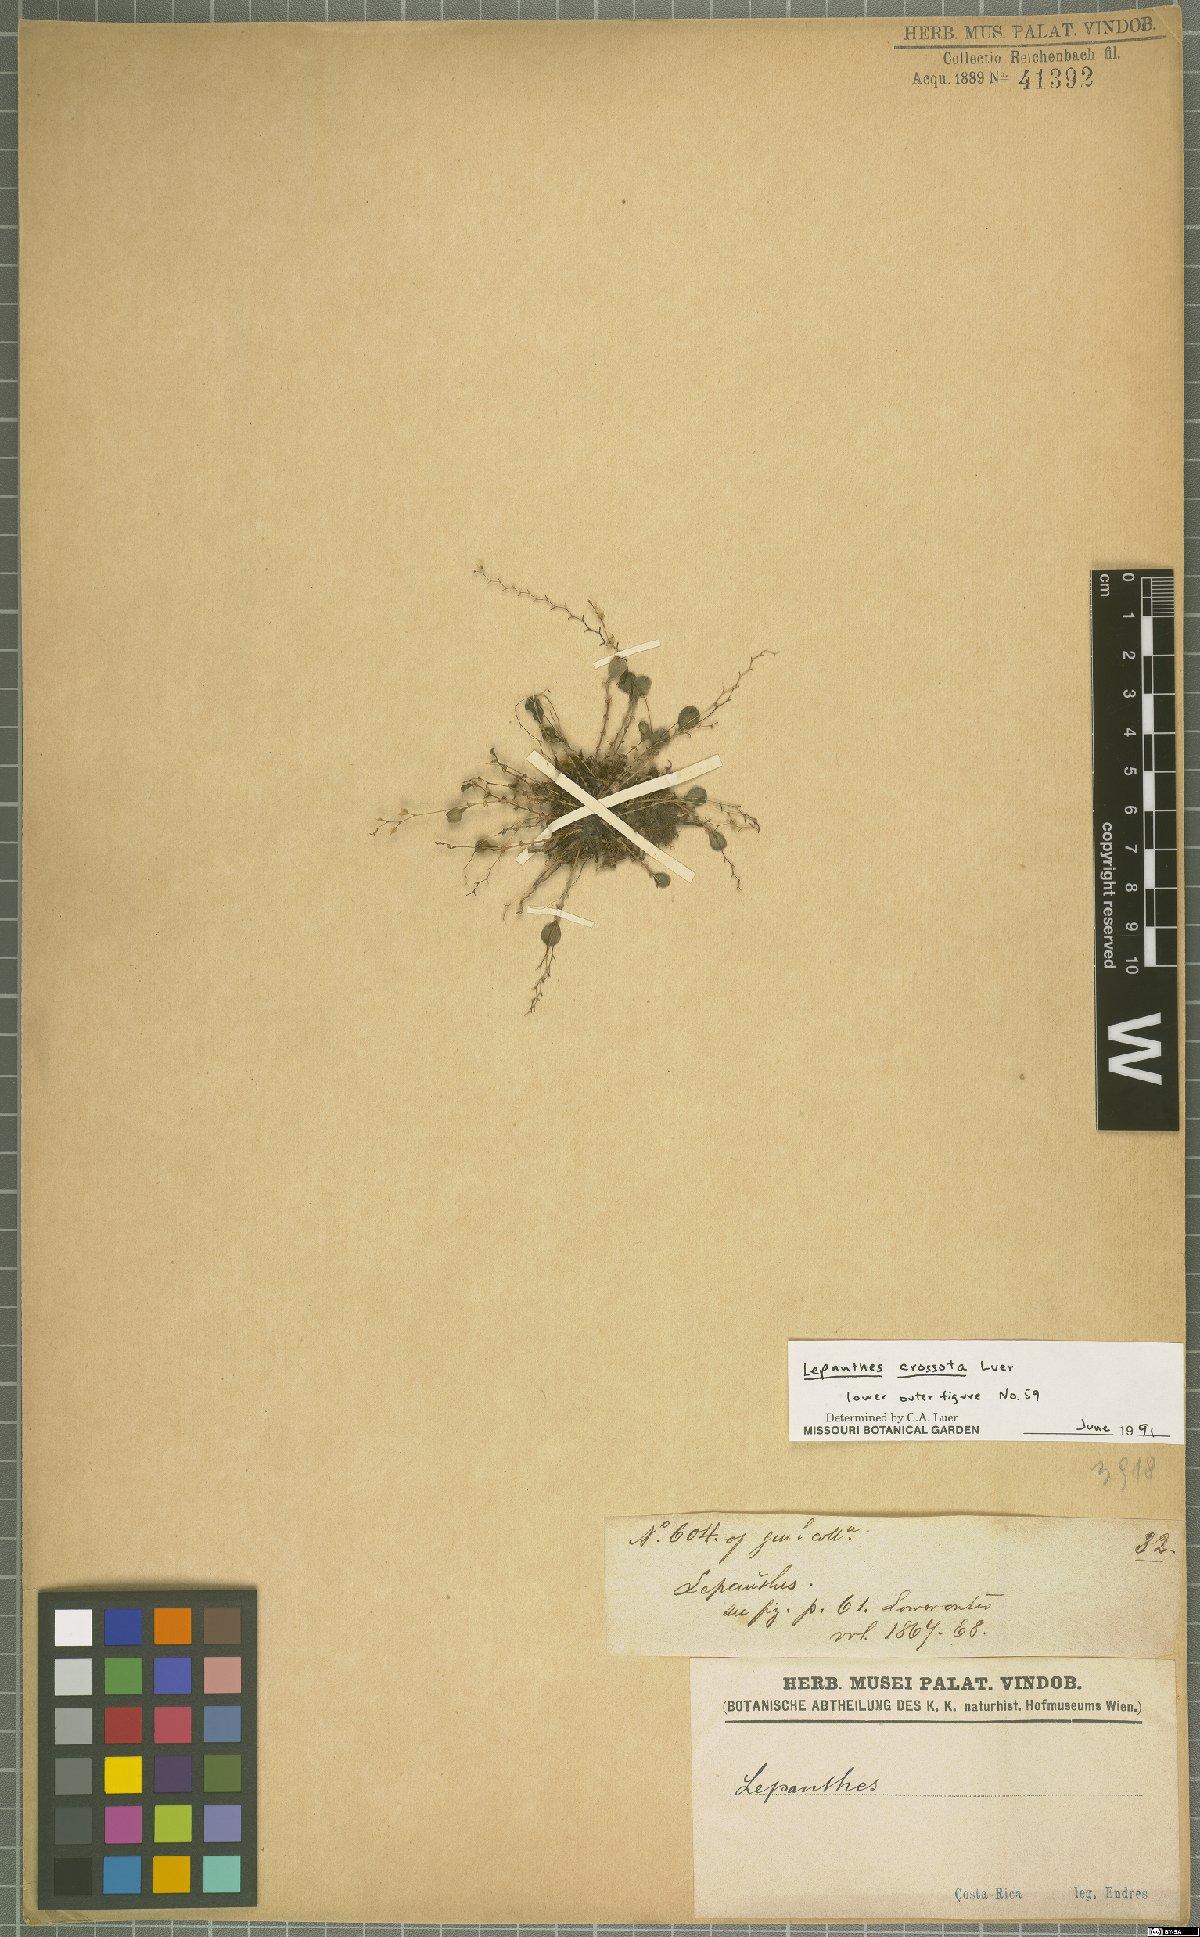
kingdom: Plantae
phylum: Tracheophyta
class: Liliopsida
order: Asparagales
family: Orchidaceae
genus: Lepanthes
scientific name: Lepanthes jimenezii
